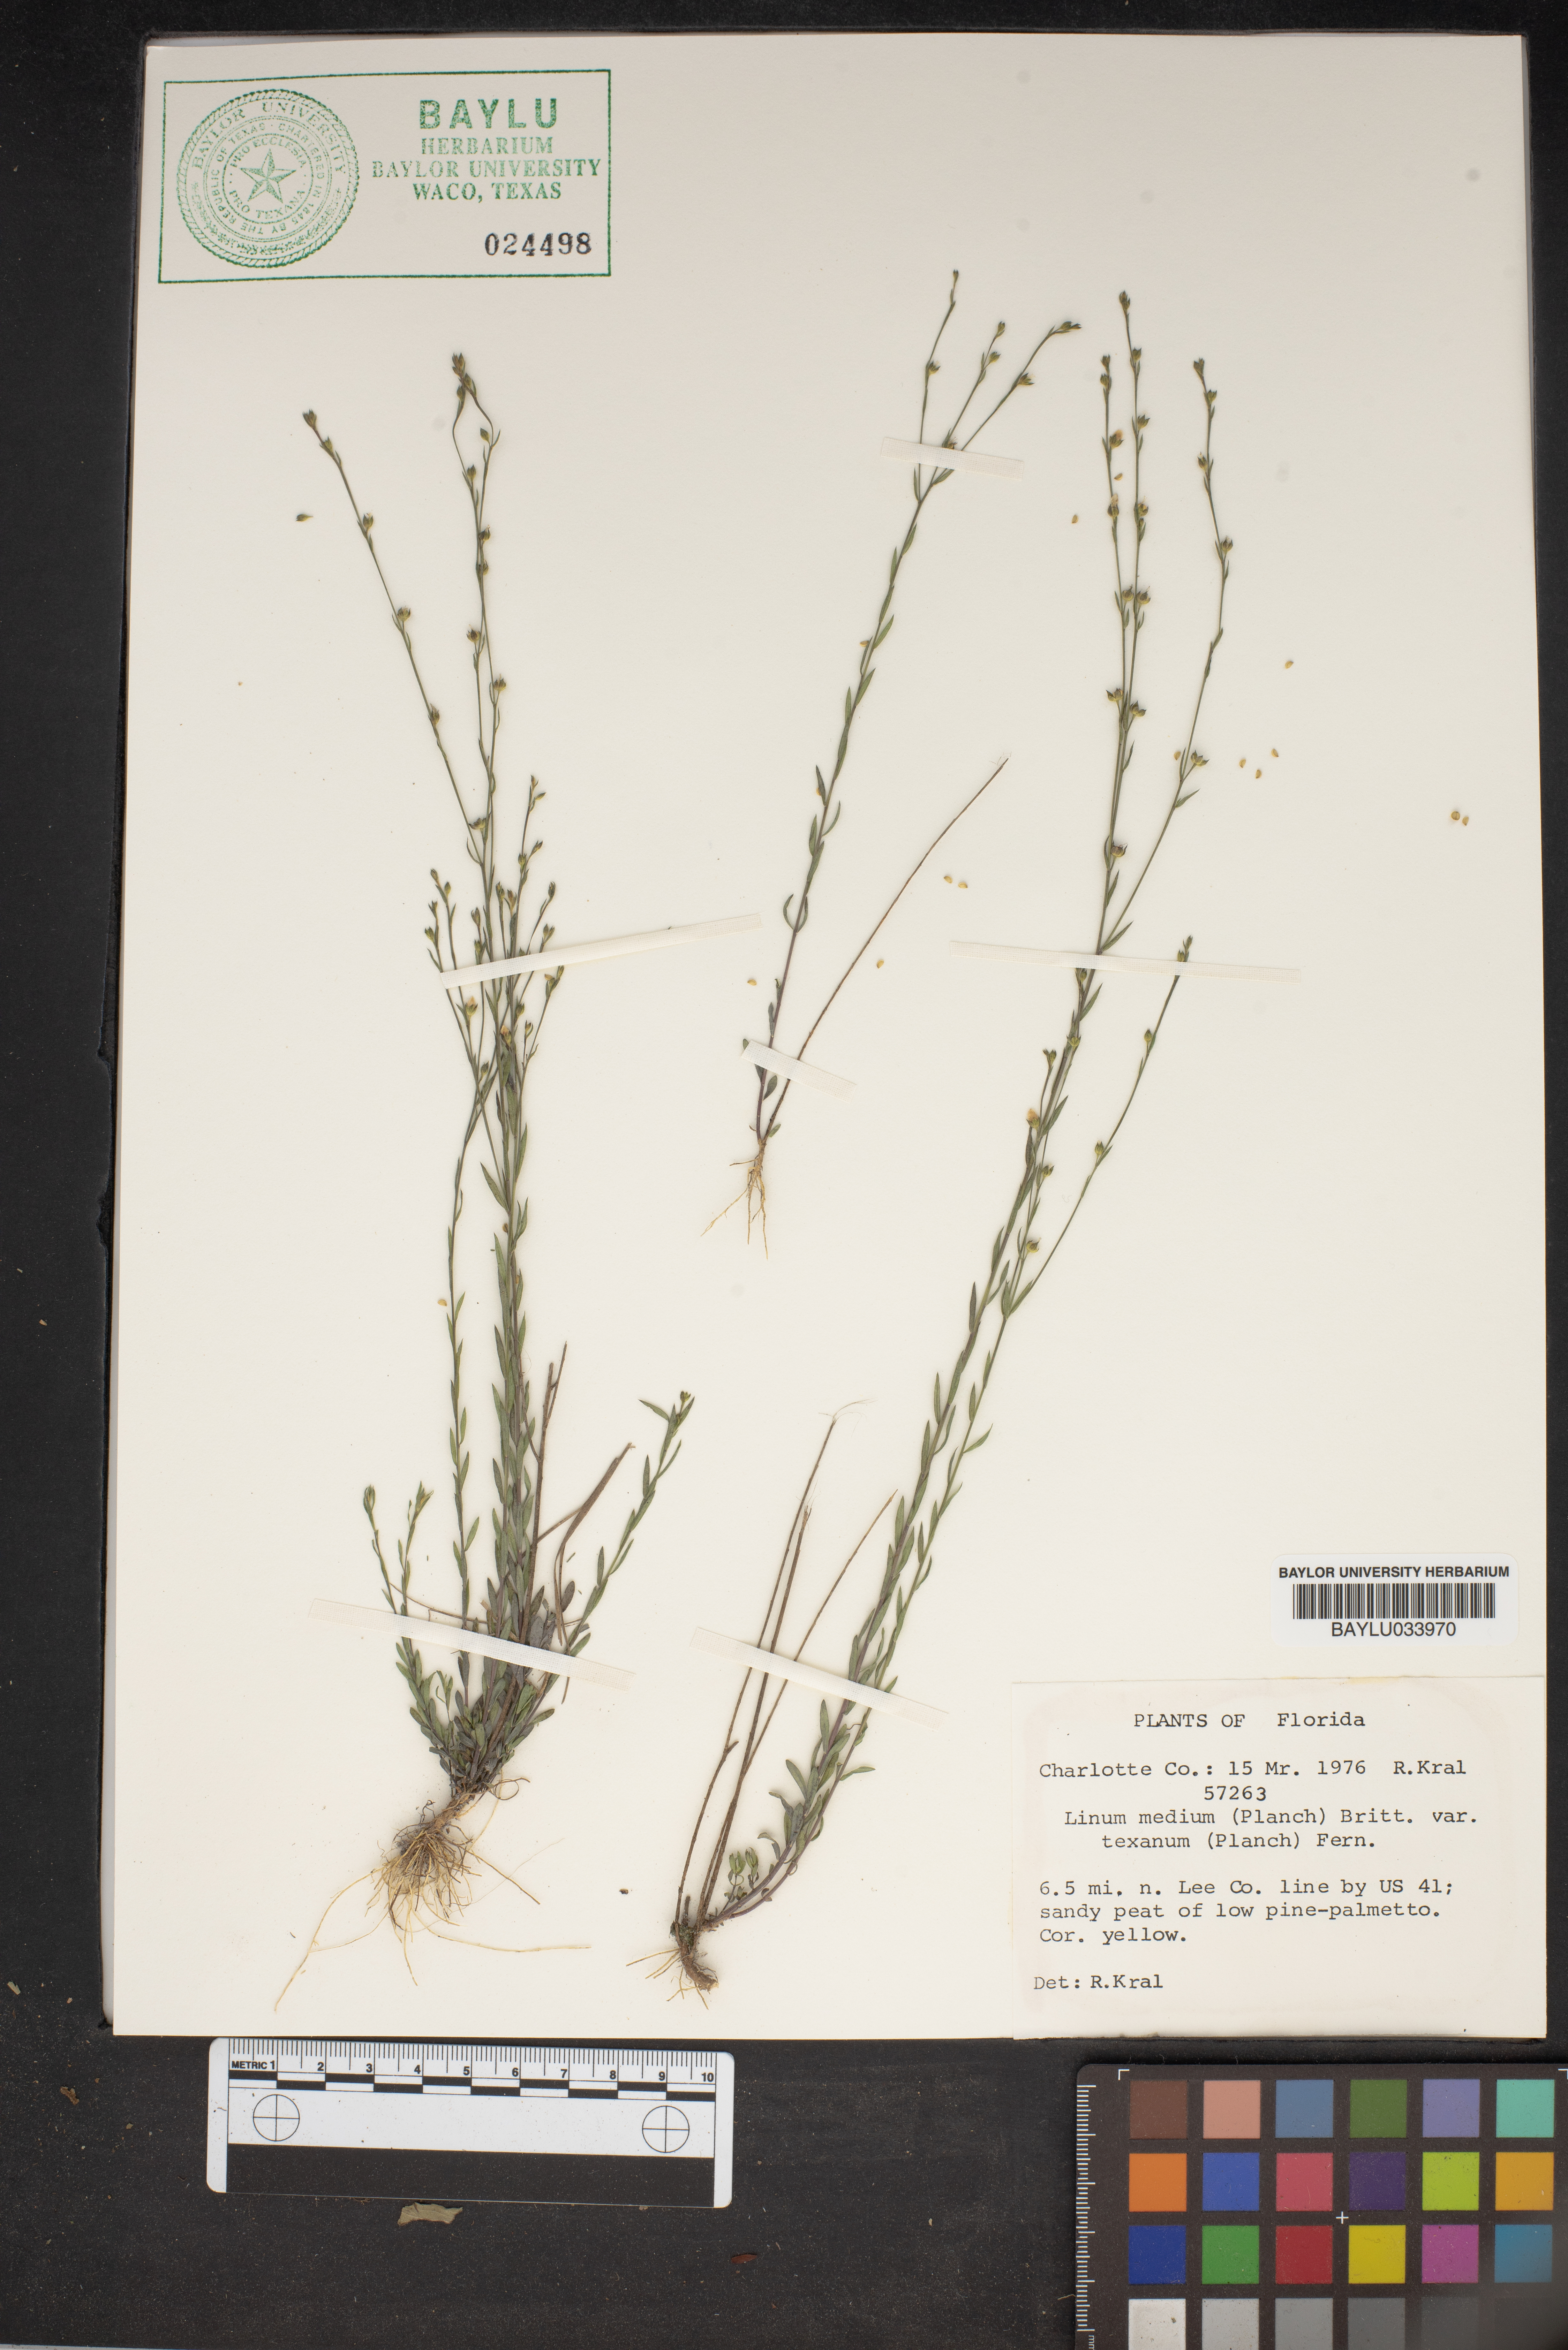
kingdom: Plantae
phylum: Tracheophyta
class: Magnoliopsida
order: Malpighiales
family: Linaceae
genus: Linum
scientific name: Linum medium
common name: Stiff yellow flax
